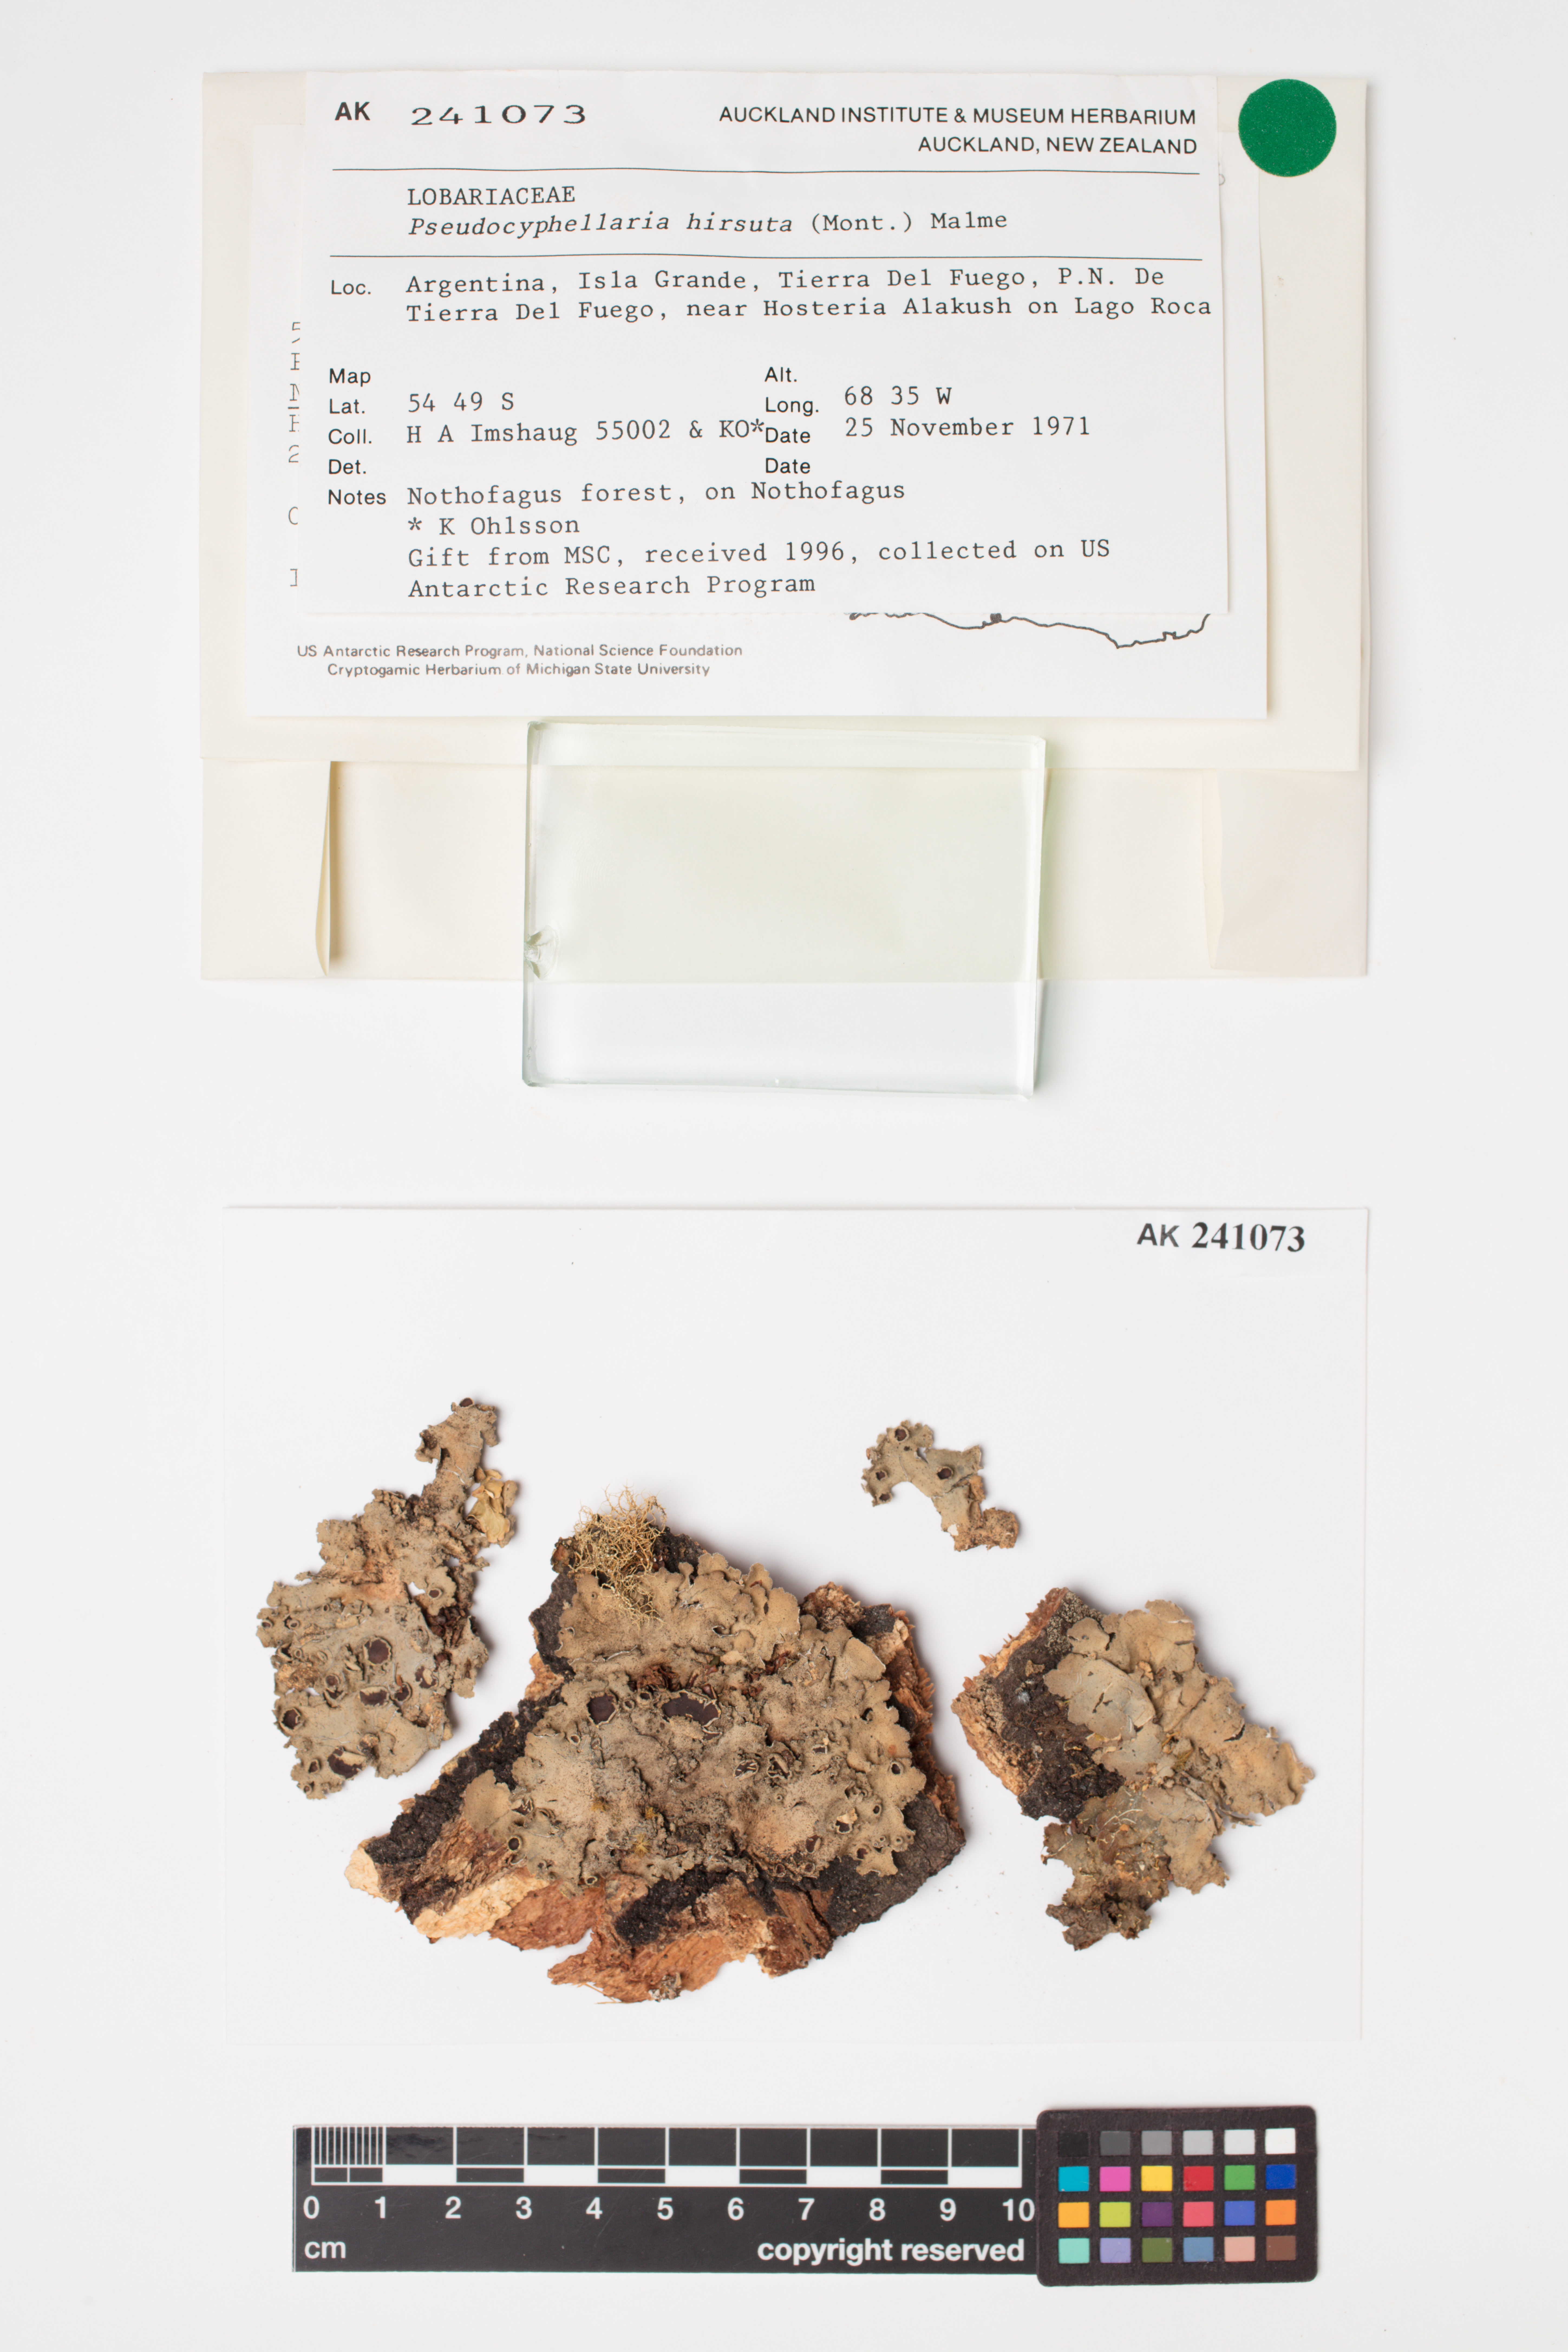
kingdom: Fungi
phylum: Ascomycota
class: Lecanoromycetes
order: Peltigerales
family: Lobariaceae
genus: Pseudocyphellaria
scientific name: Pseudocyphellaria hirsuta
